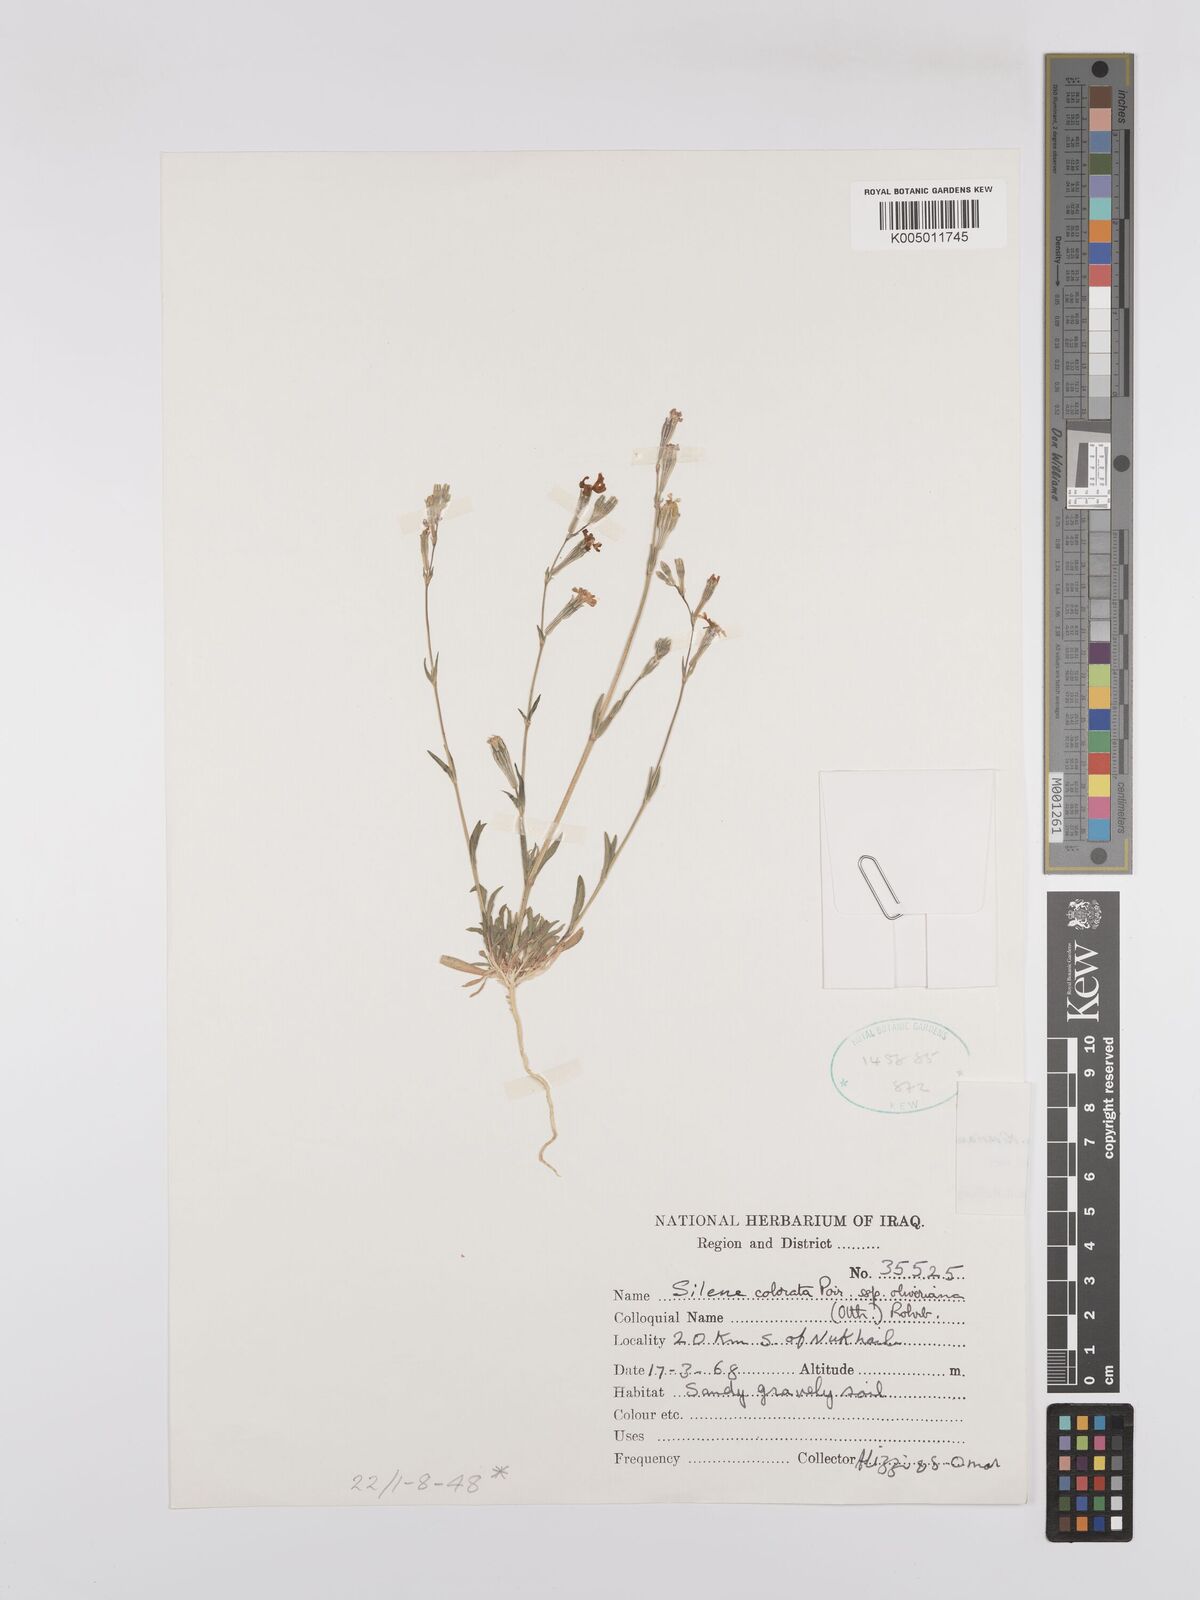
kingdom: Plantae
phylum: Tracheophyta
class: Magnoliopsida
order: Caryophyllales
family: Caryophyllaceae
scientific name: Caryophyllaceae
